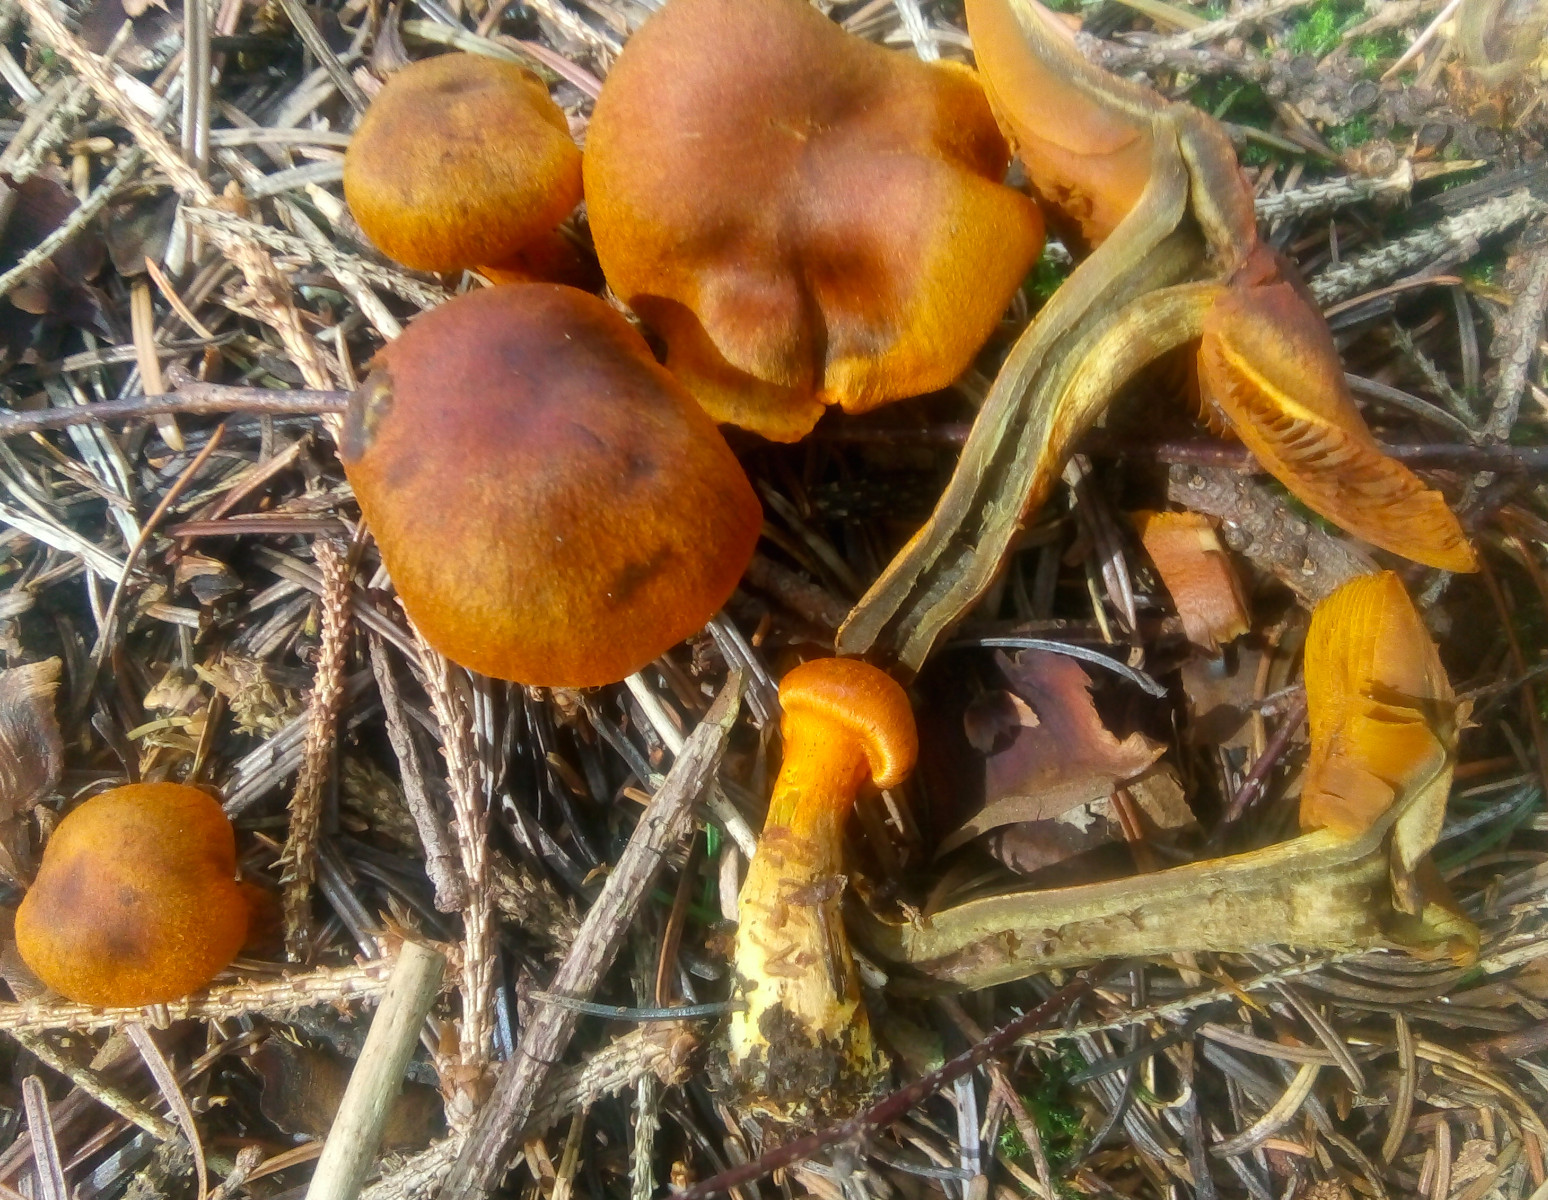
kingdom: Fungi
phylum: Basidiomycota
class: Agaricomycetes
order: Agaricales
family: Cortinariaceae
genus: Cortinarius
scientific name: Cortinarius malicorius
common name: grønkødet slørhat
